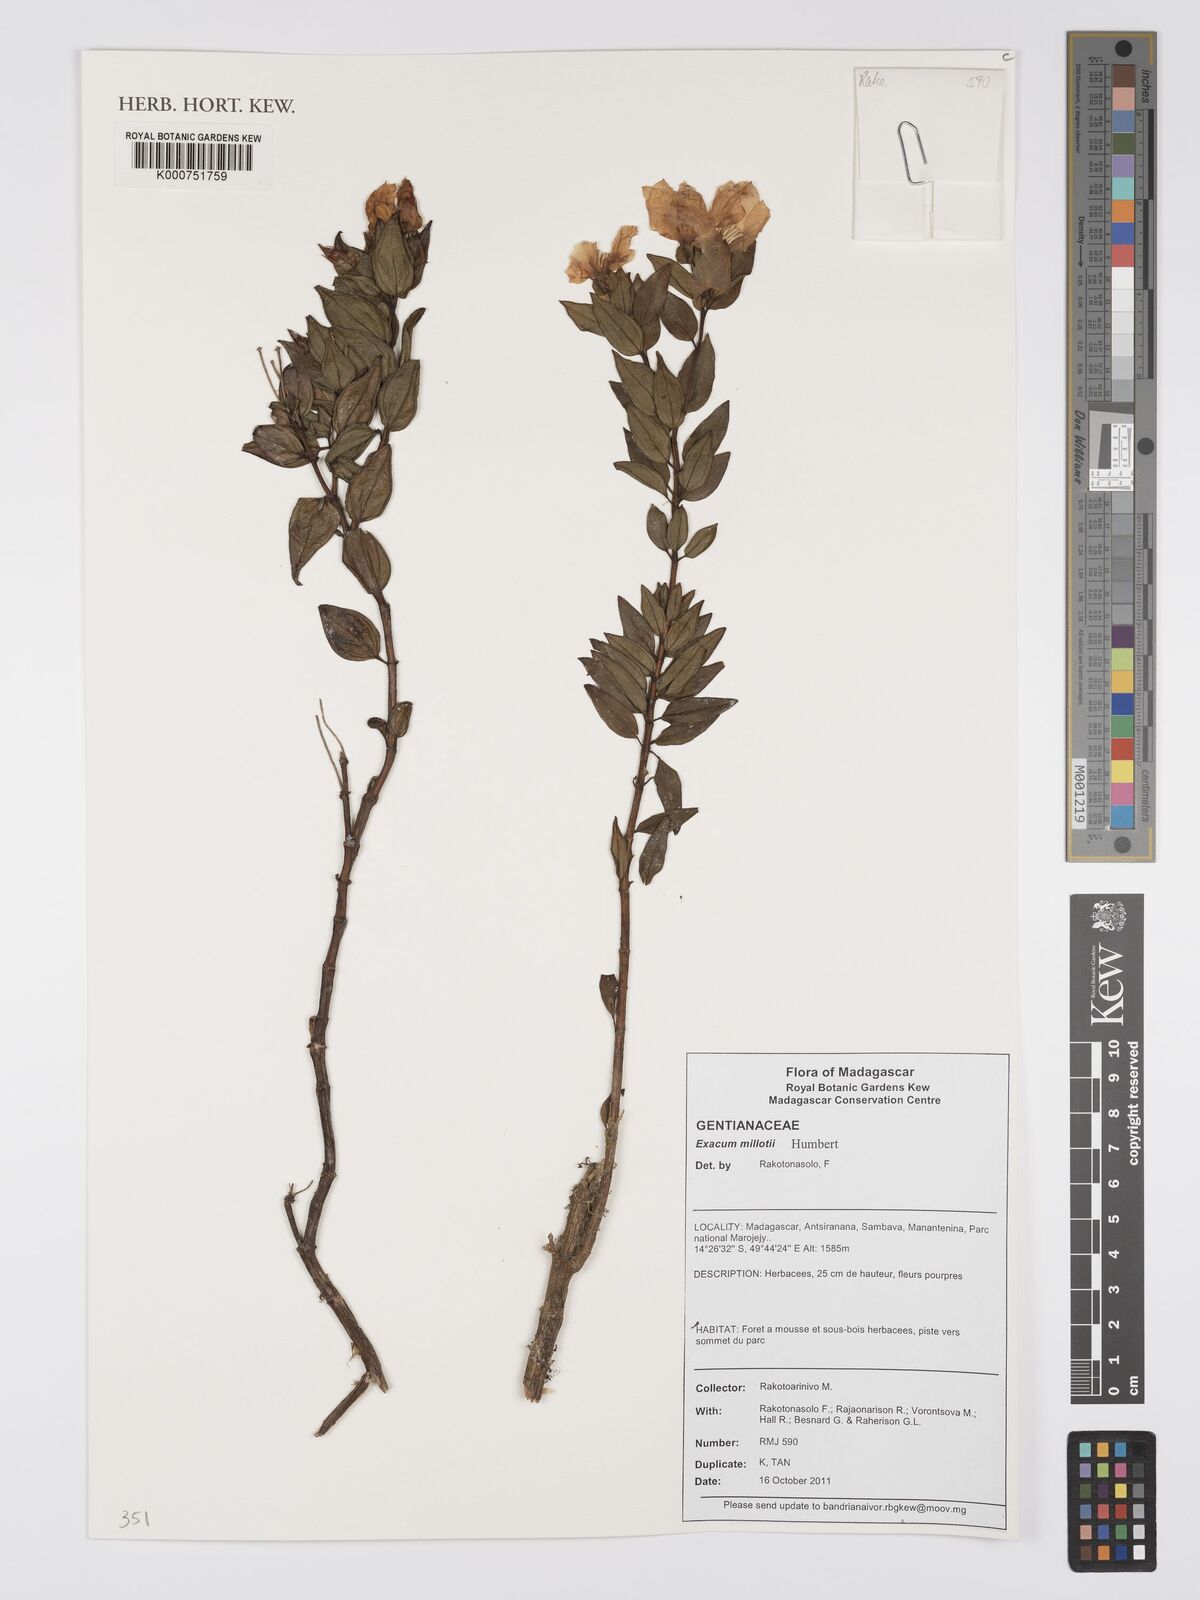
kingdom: Plantae
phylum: Tracheophyta
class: Magnoliopsida
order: Gentianales
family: Gentianaceae
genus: Exacum
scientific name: Exacum millotii
